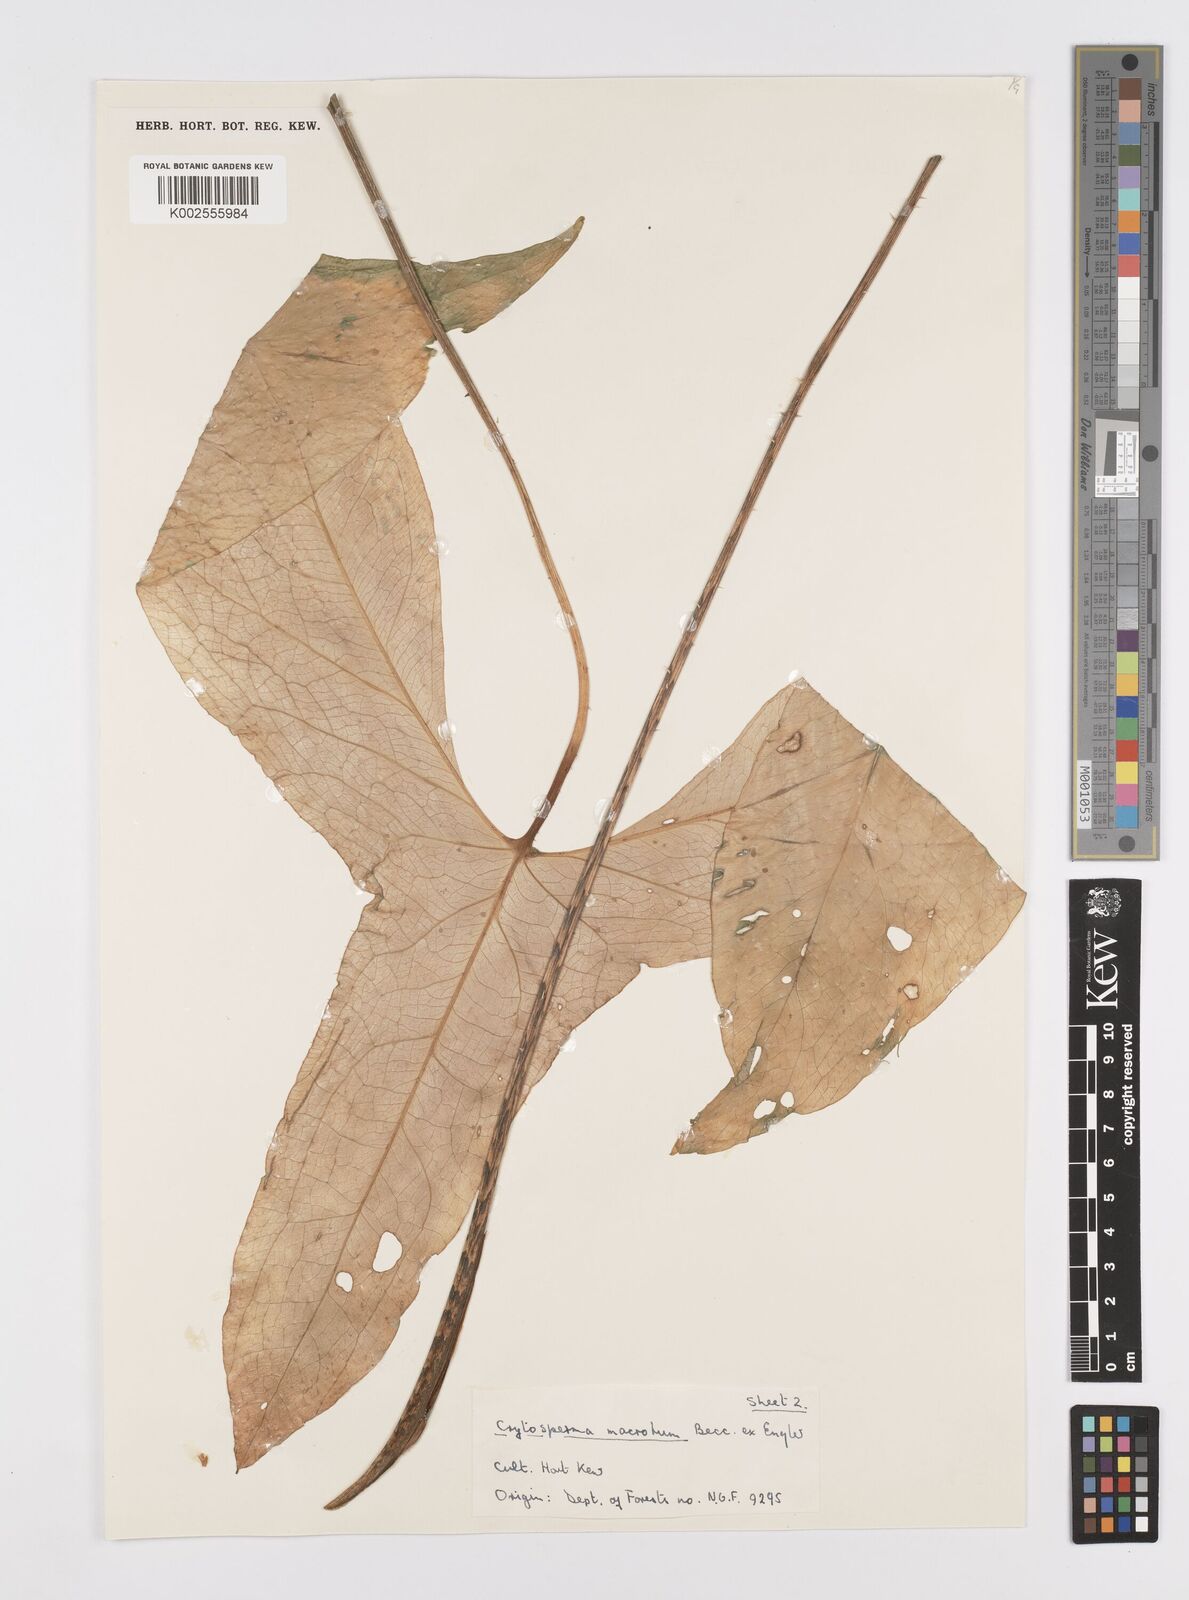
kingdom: Plantae
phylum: Tracheophyta
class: Liliopsida
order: Alismatales
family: Araceae
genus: Cyrtosperma
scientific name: Cyrtosperma macrotum
